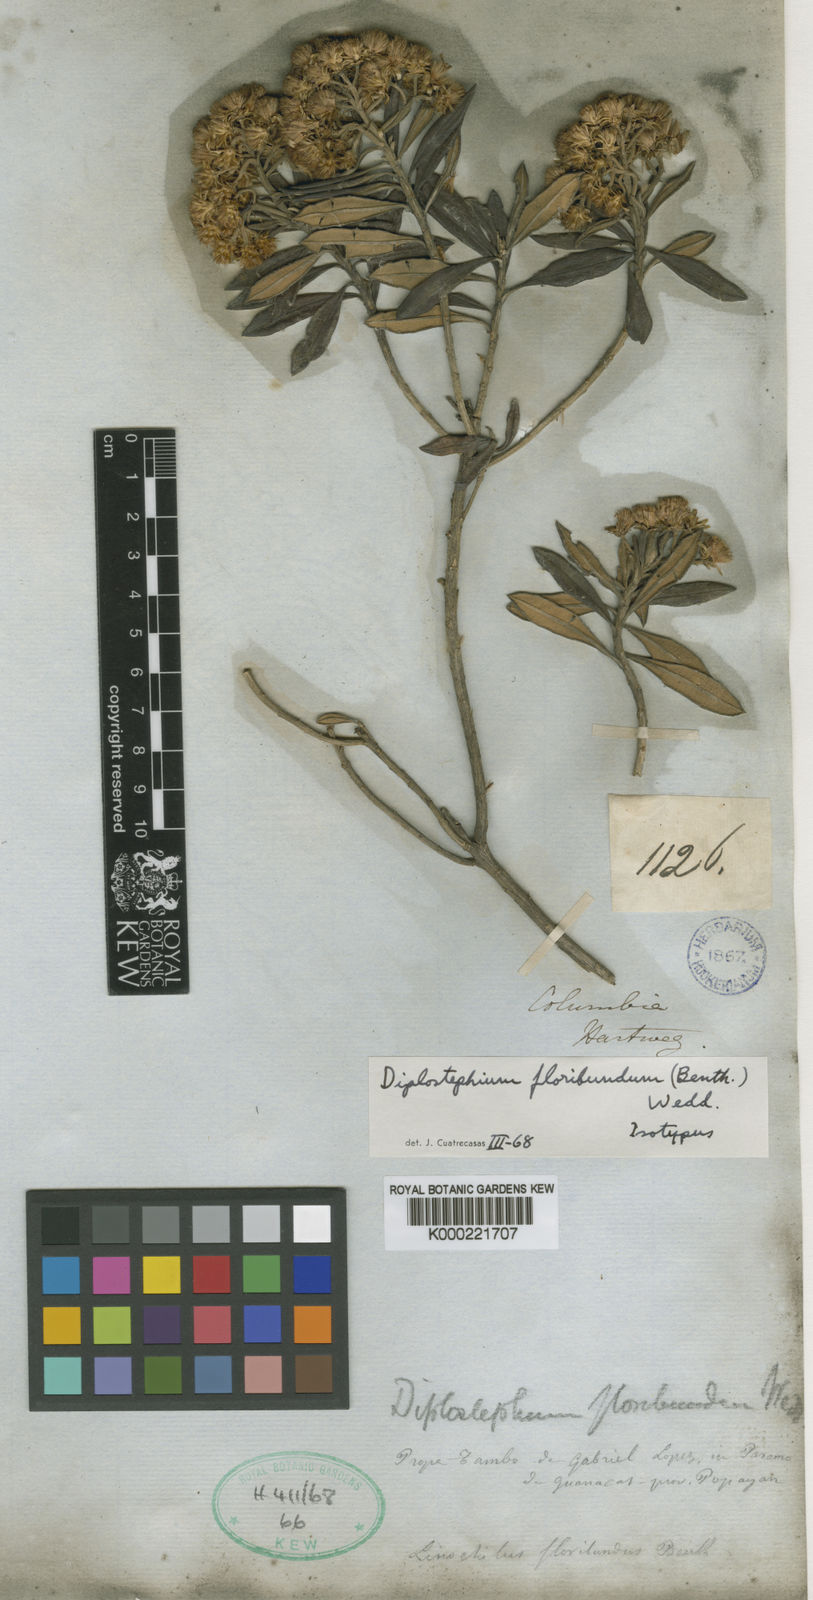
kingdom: Plantae
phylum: Tracheophyta
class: Magnoliopsida
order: Asterales
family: Asteraceae
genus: Linochilus
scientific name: Linochilus floribundus
